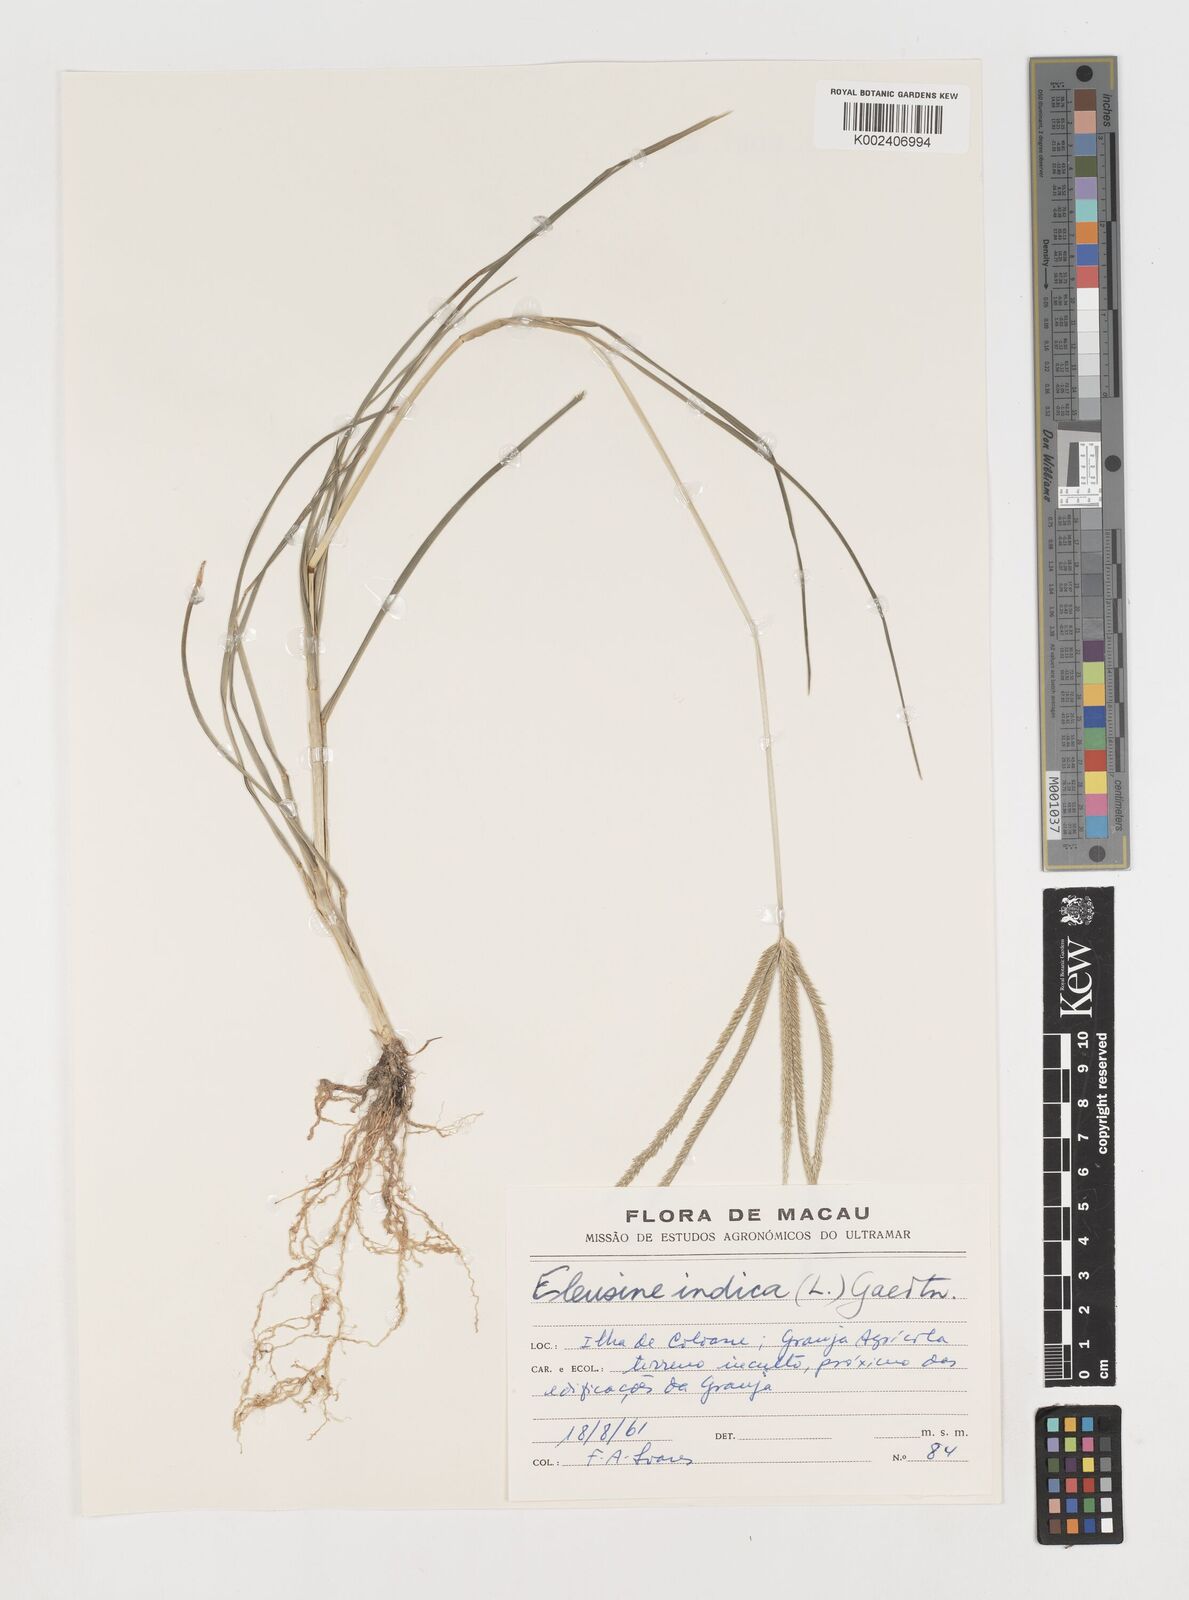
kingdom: Plantae
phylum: Tracheophyta
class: Liliopsida
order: Poales
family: Poaceae
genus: Eleusine
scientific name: Eleusine indica
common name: Yard-grass
